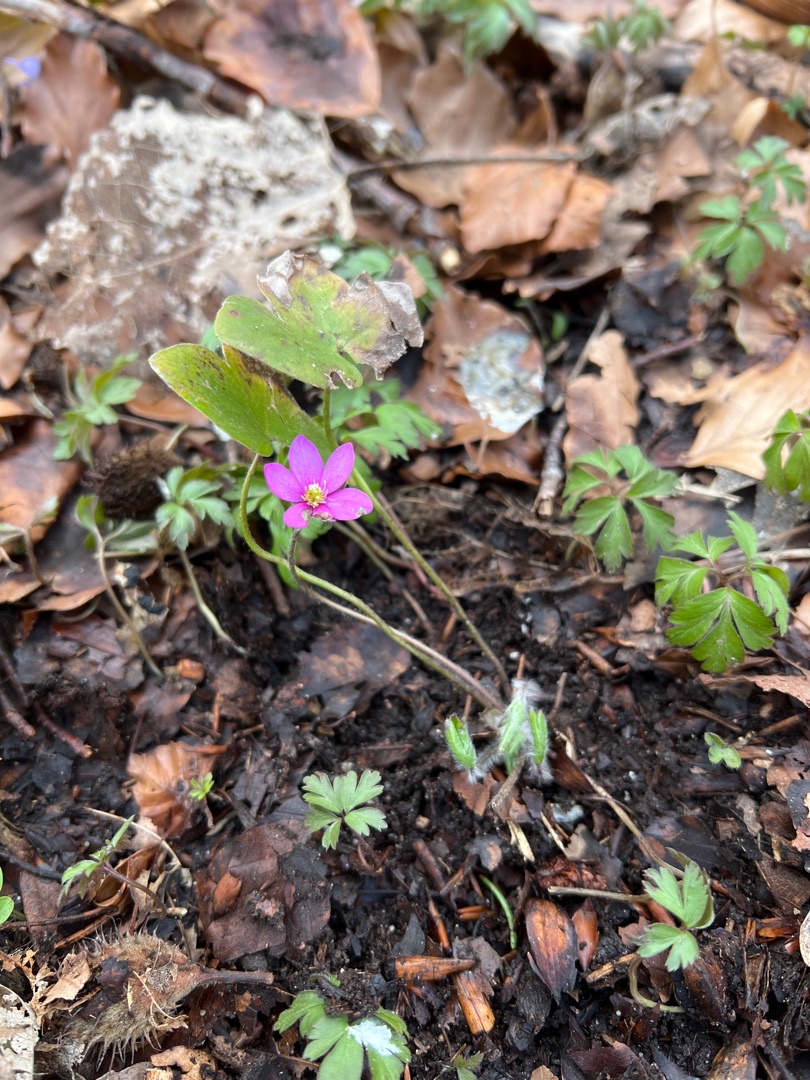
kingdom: Plantae
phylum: Tracheophyta
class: Magnoliopsida
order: Ranunculales
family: Ranunculaceae
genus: Hepatica
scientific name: Hepatica nobilis
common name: Blå anemone
